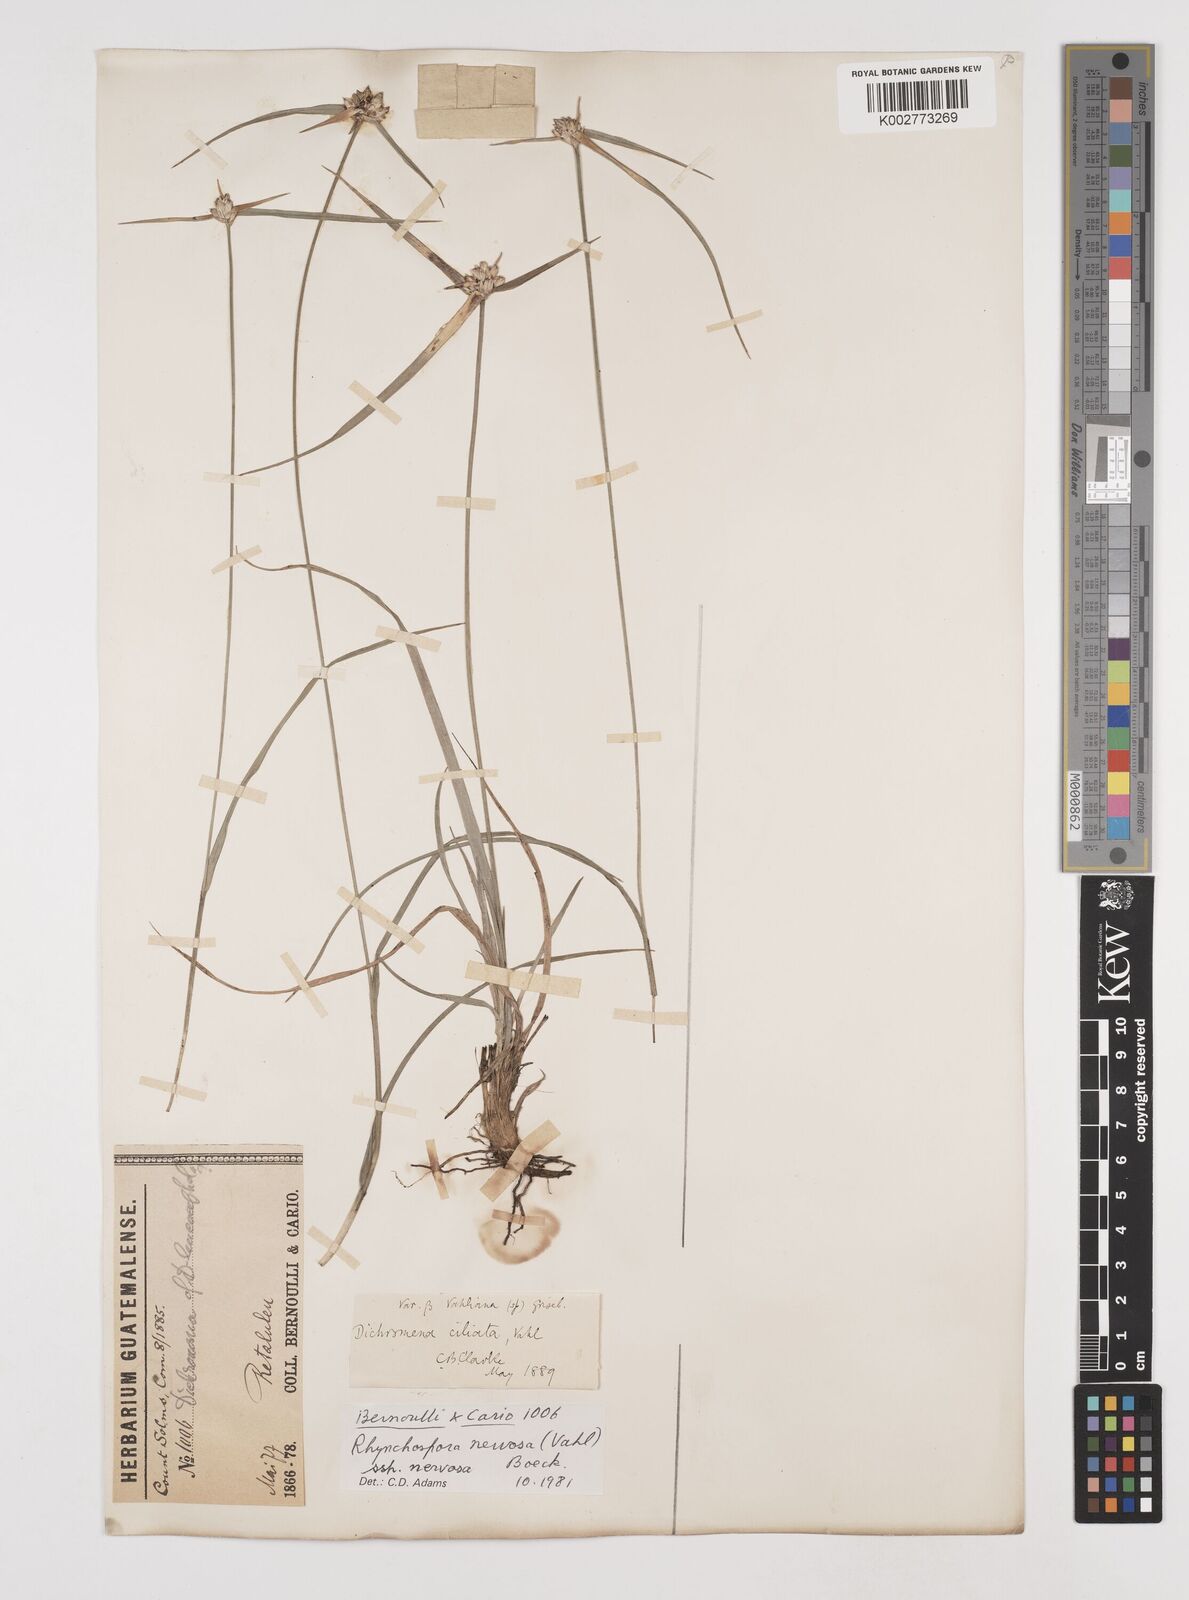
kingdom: Plantae
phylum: Tracheophyta
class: Liliopsida
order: Poales
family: Cyperaceae
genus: Rhynchospora
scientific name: Rhynchospora nervosa
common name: Star sedge
